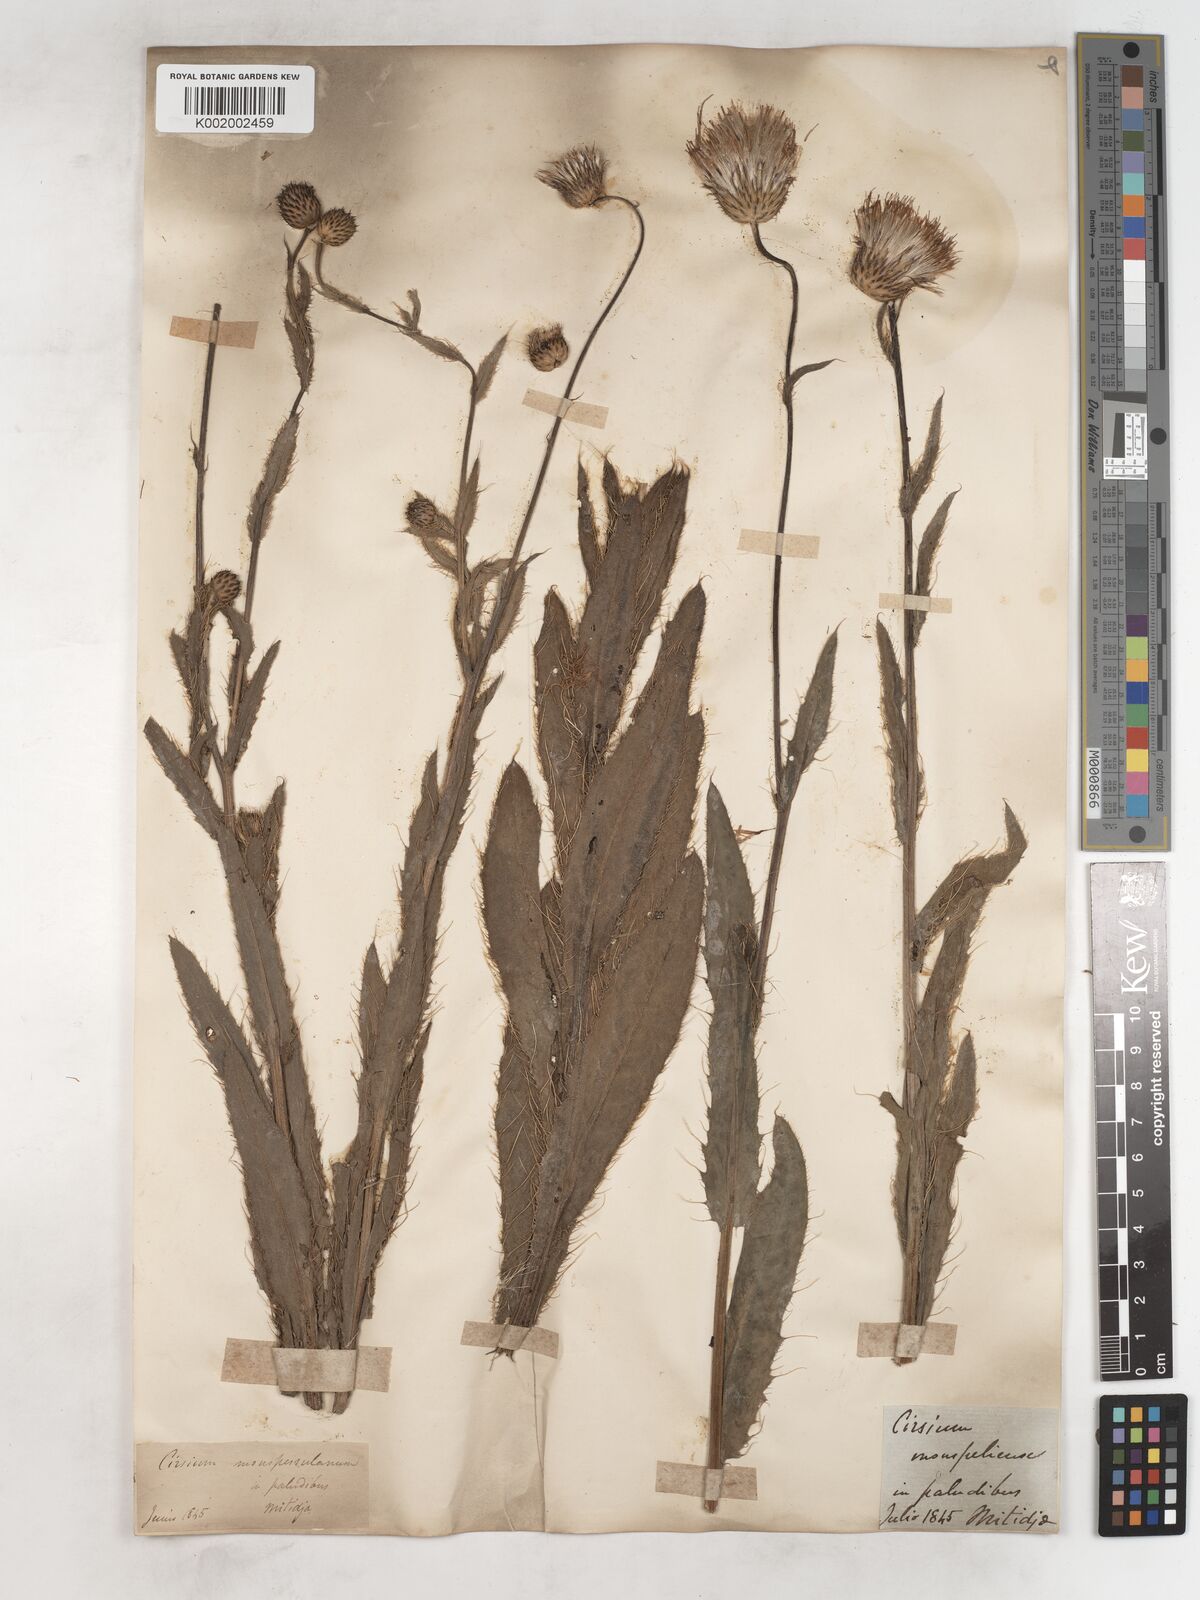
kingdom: Plantae
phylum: Tracheophyta
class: Magnoliopsida
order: Asterales
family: Asteraceae
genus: Cirsium
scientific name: Cirsium monspessulanum
